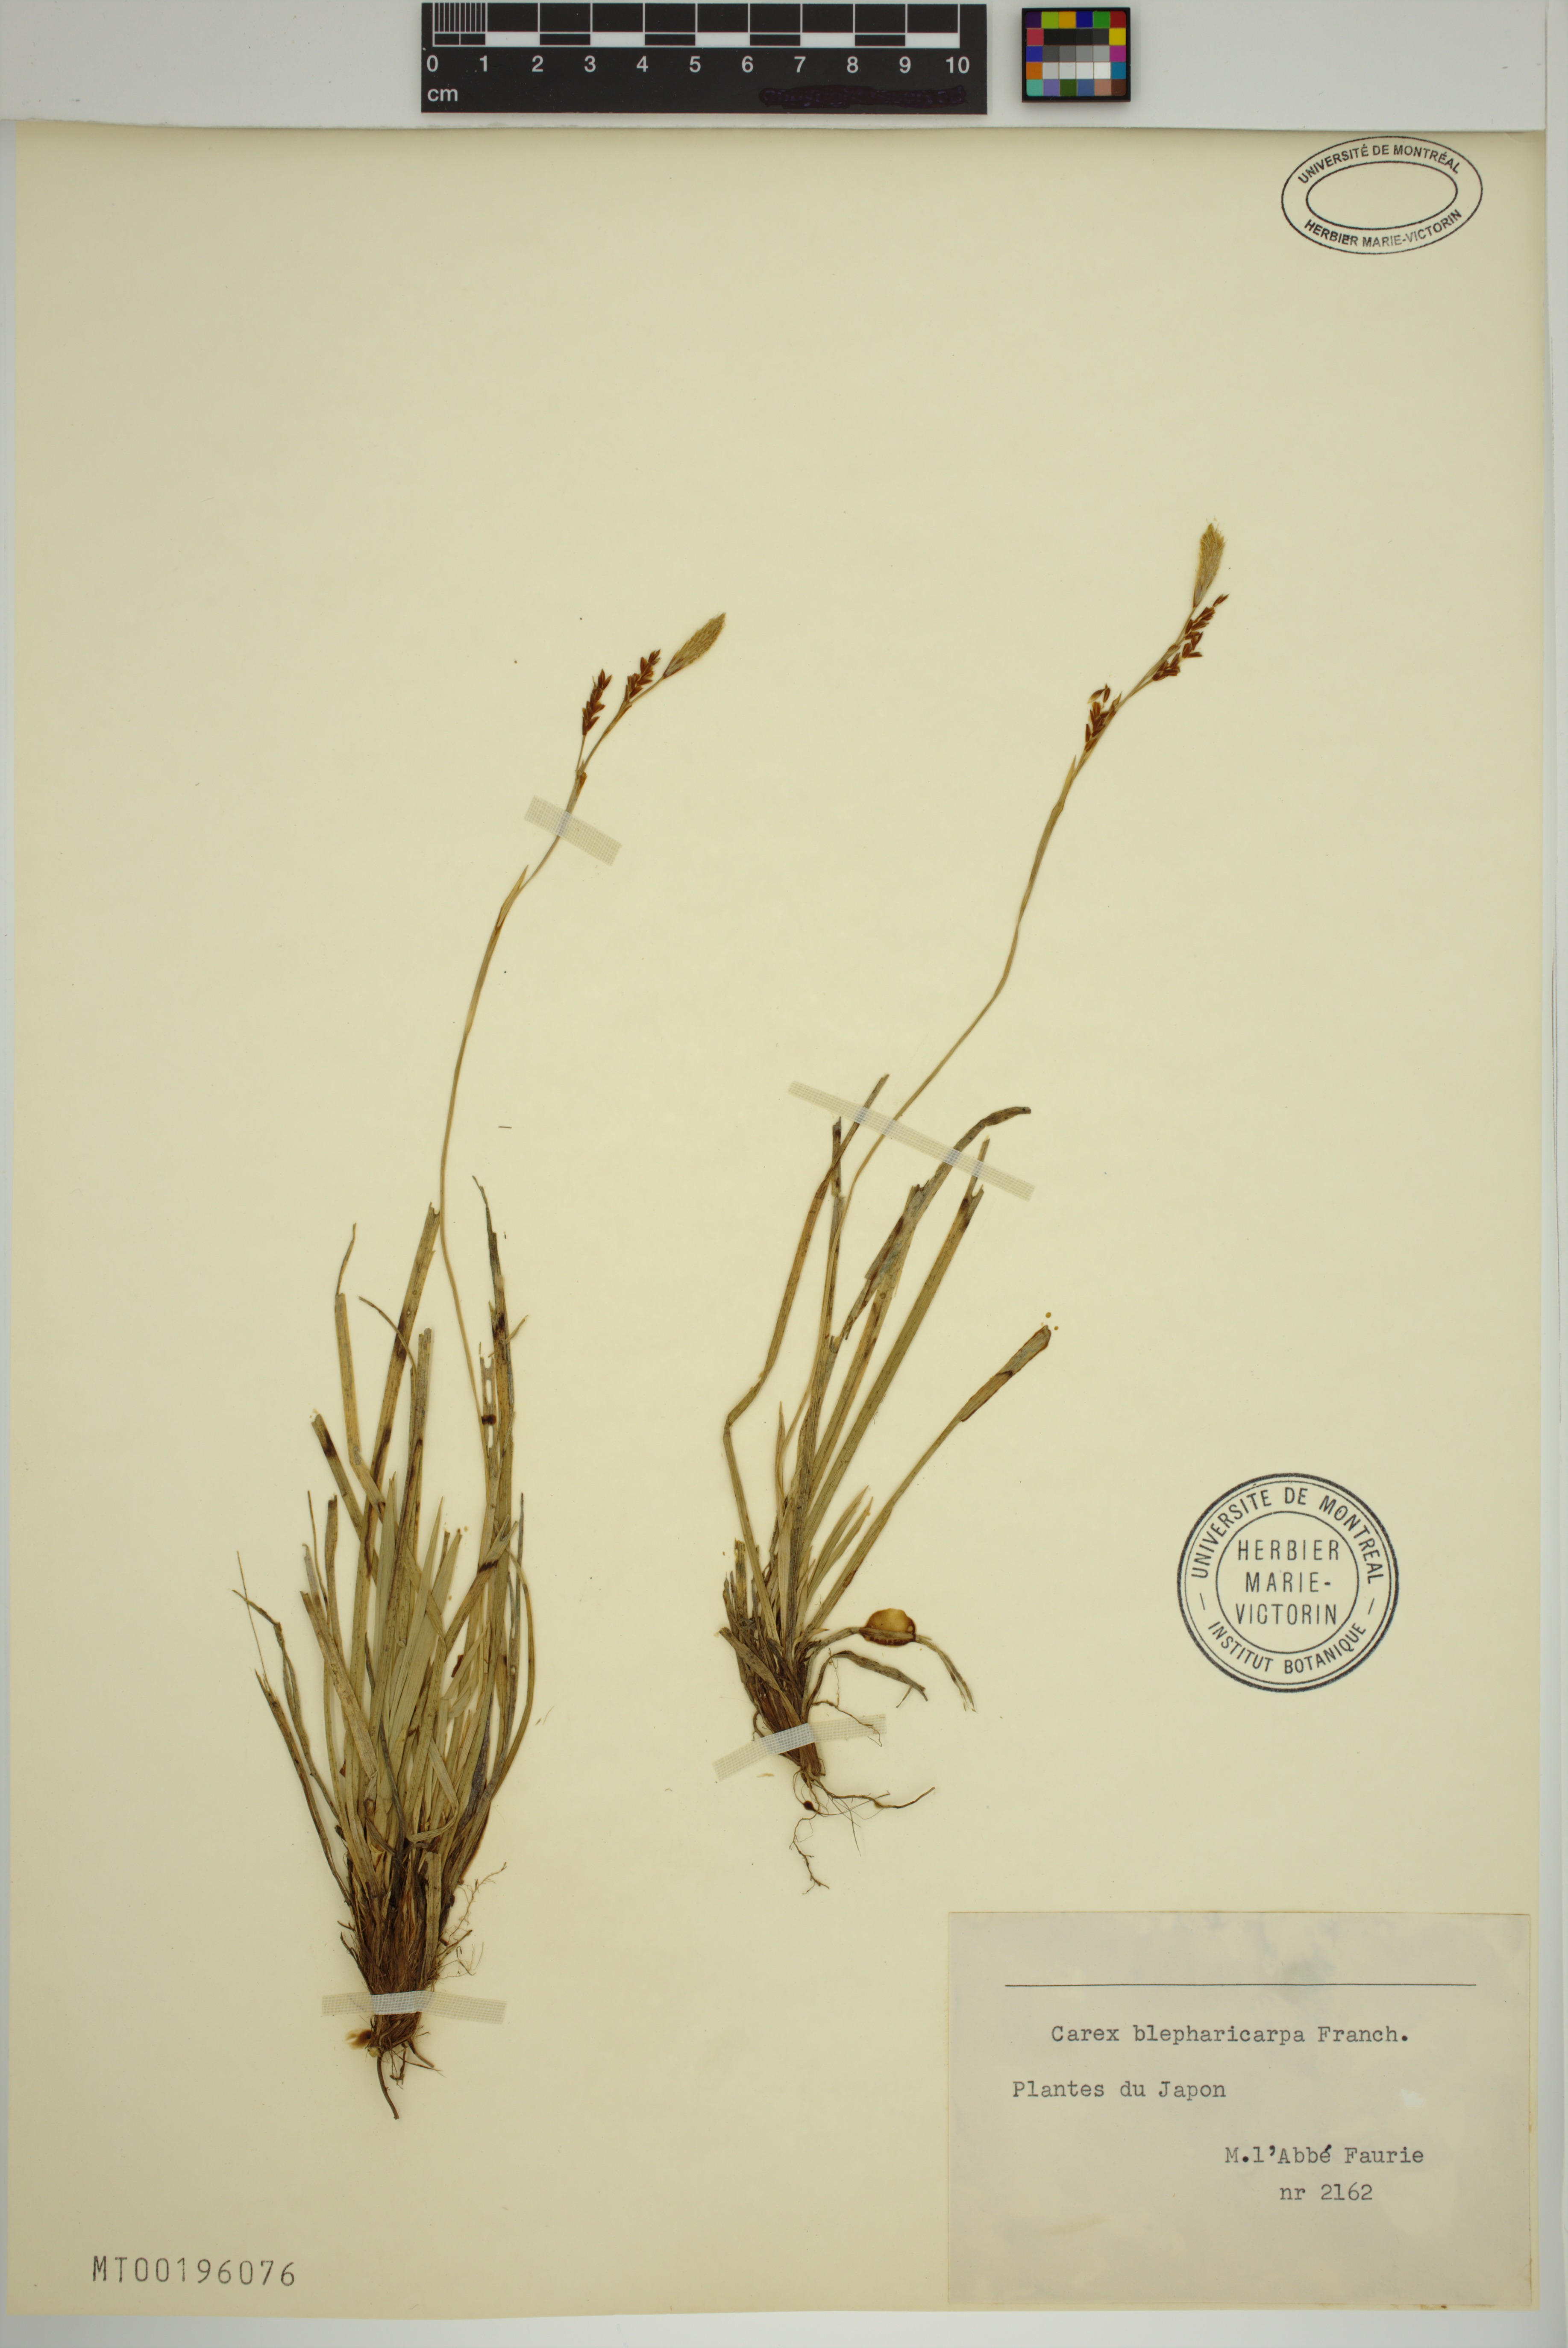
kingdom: Plantae
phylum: Tracheophyta
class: Liliopsida
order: Poales
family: Cyperaceae
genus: Carex
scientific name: Carex blepharicarpa
